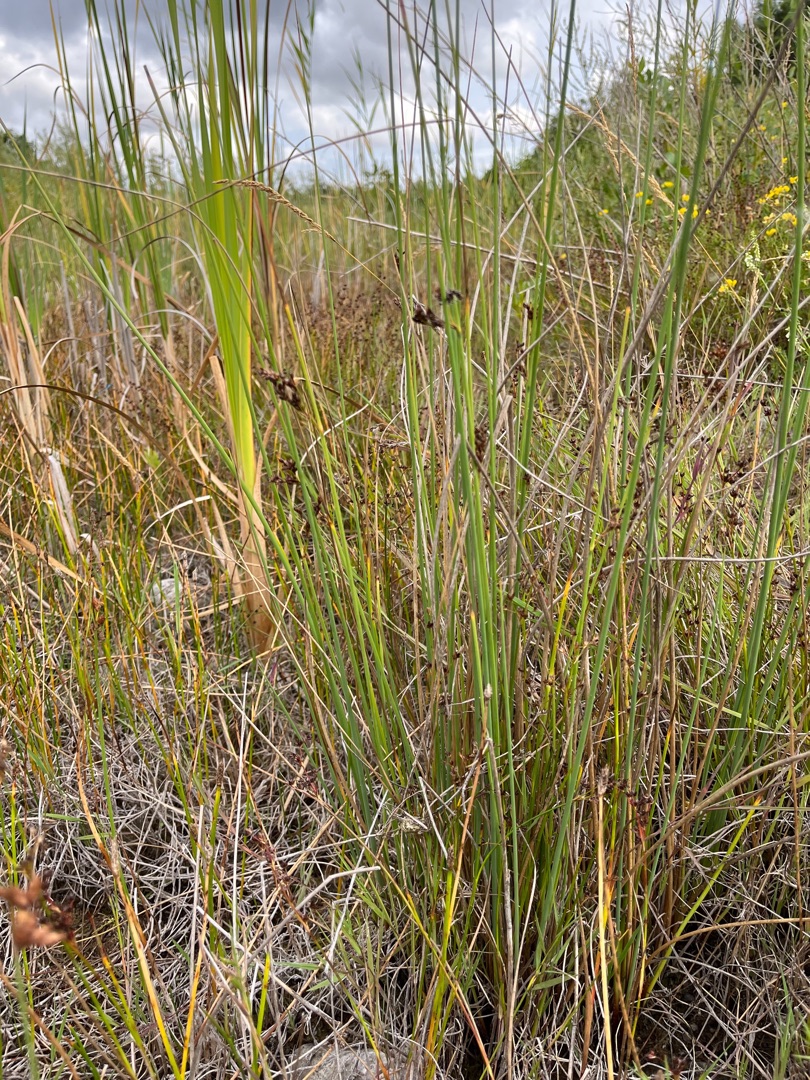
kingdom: Plantae
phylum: Tracheophyta
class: Liliopsida
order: Poales
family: Cyperaceae
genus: Schoenoplectus
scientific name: Schoenoplectus lacustris
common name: Sø-kogleaks
